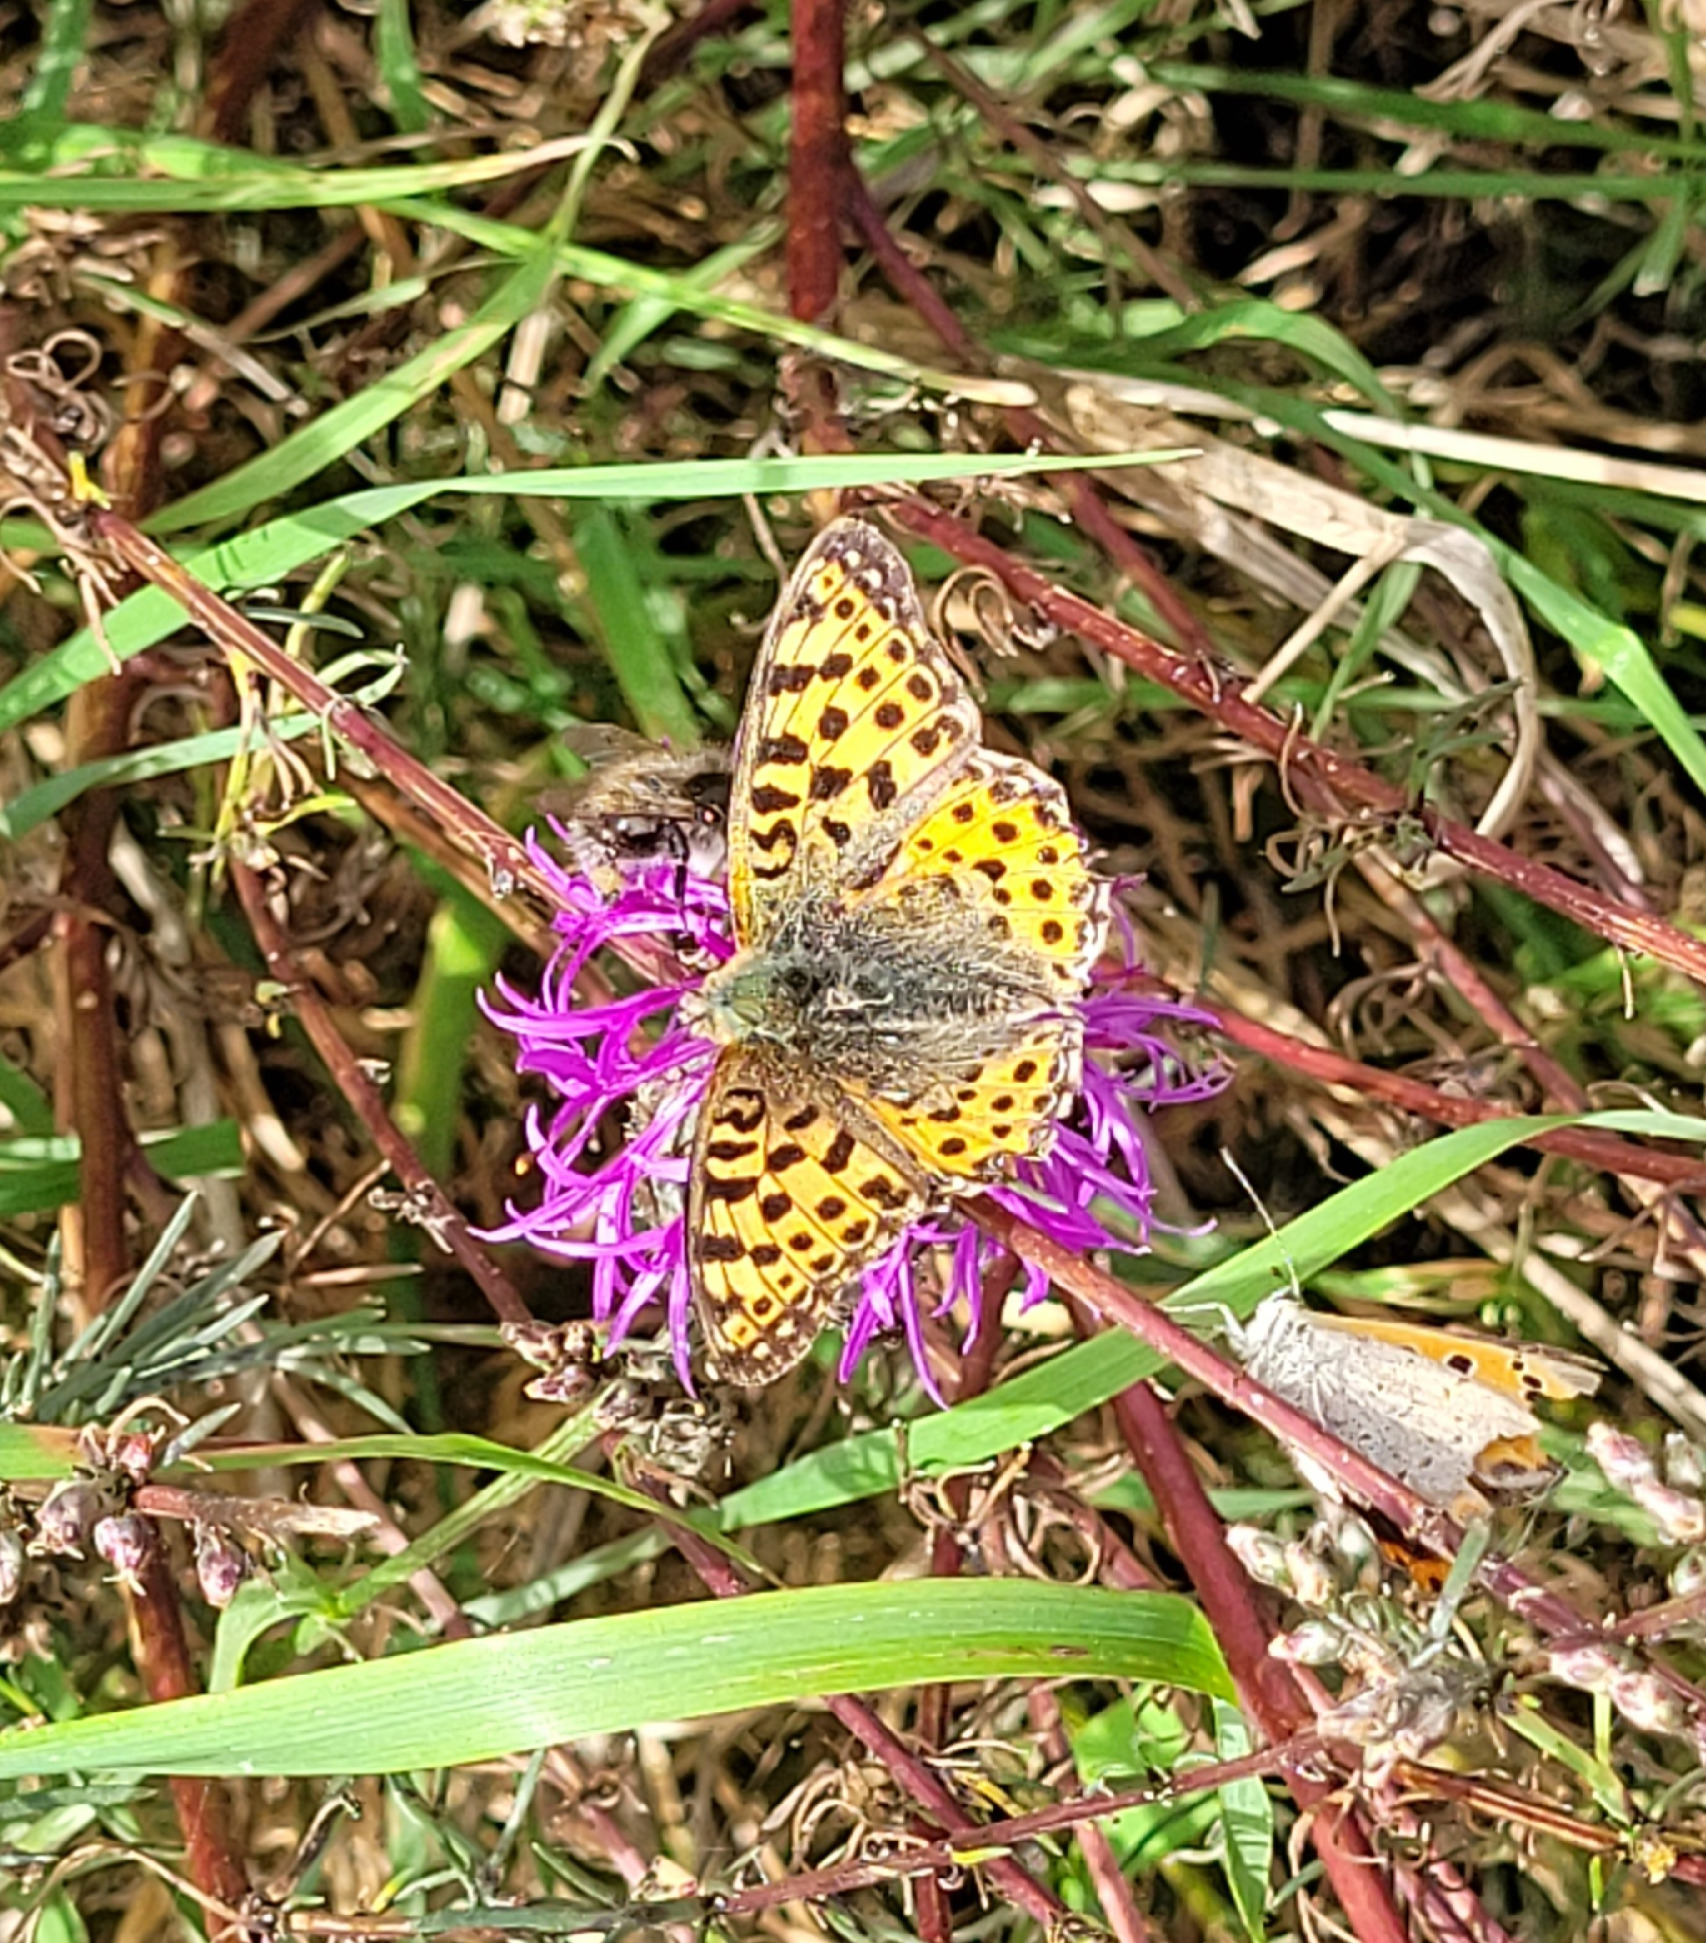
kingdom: Animalia
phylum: Arthropoda
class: Insecta
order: Lepidoptera
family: Nymphalidae
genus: Issoria
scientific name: Issoria lathonia
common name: Storplettet perlemorsommerfugl
